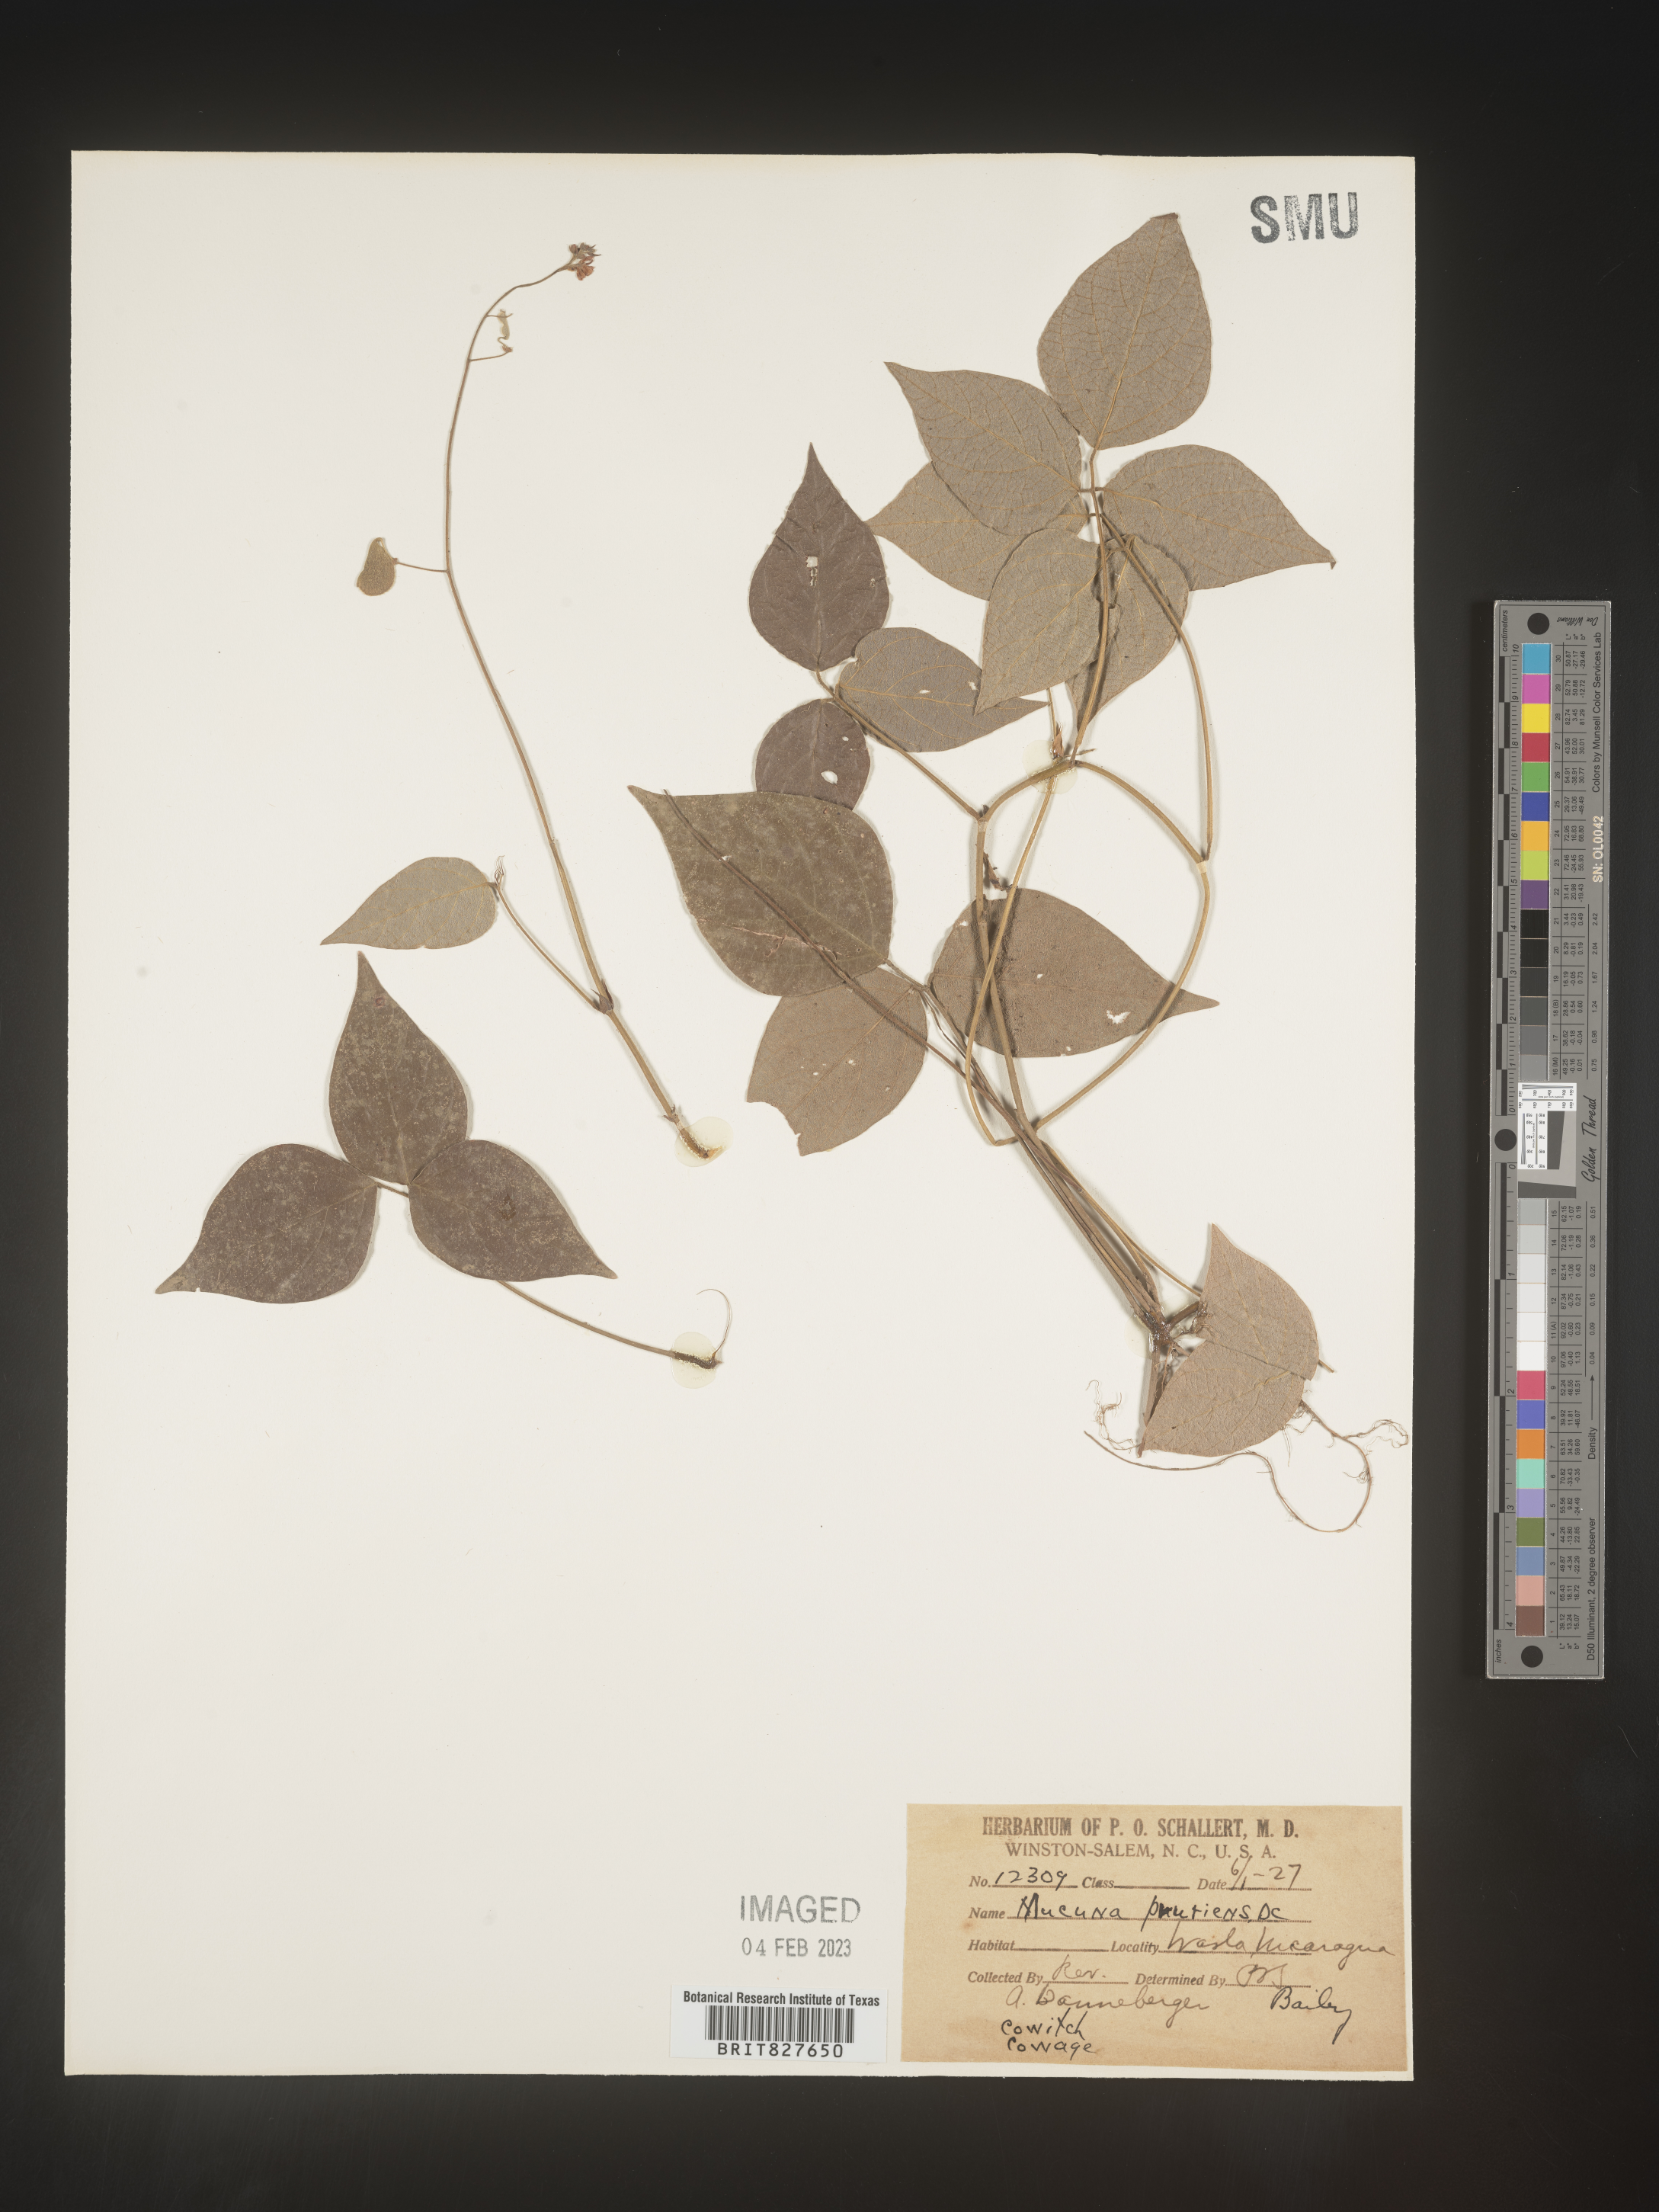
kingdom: Plantae
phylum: Tracheophyta
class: Magnoliopsida
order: Fabales
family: Fabaceae
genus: Mucuna
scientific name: Mucuna
